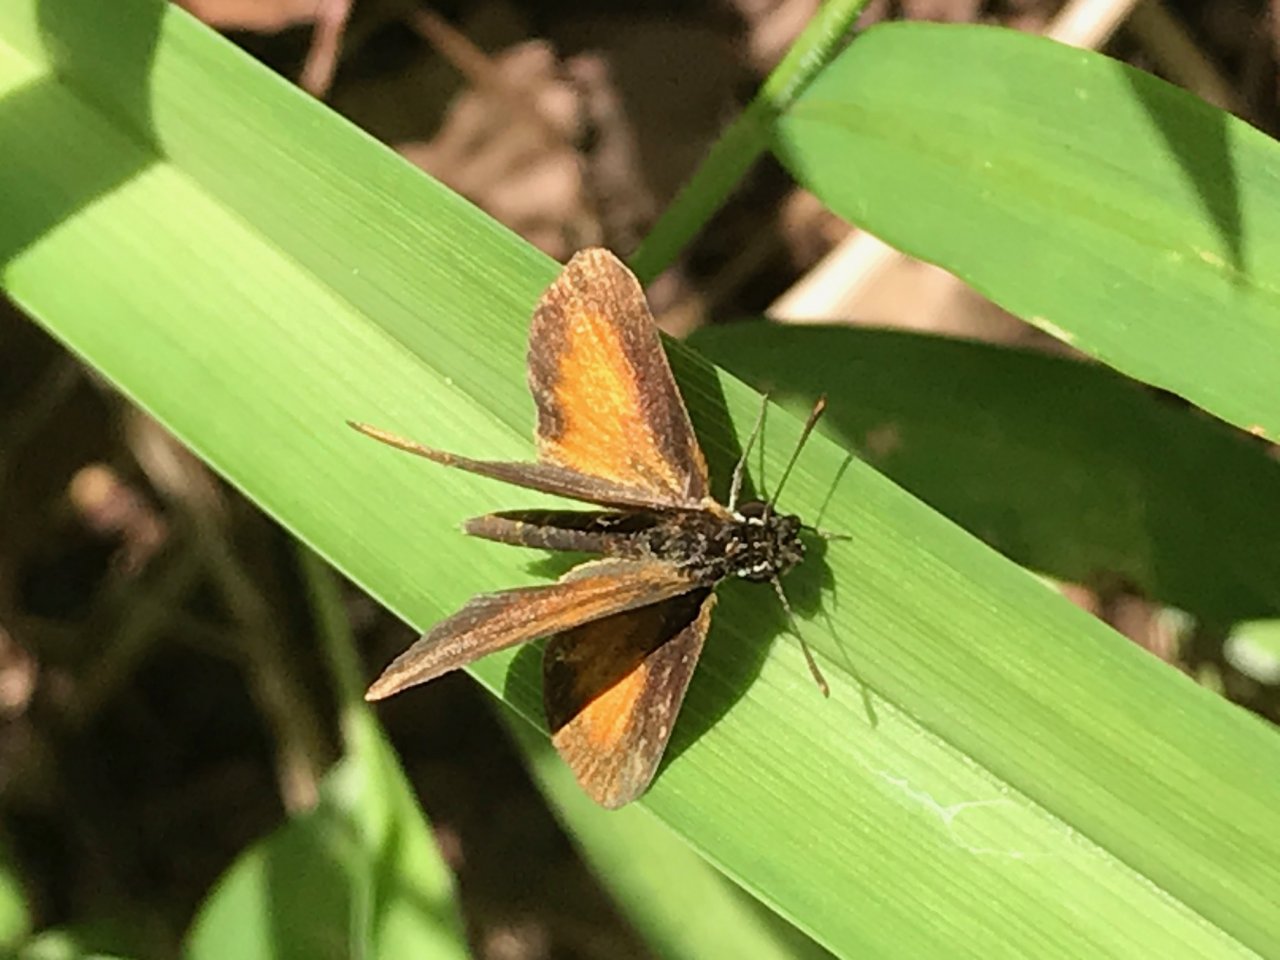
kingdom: Animalia
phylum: Arthropoda
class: Insecta
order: Lepidoptera
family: Hesperiidae
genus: Ancyloxypha
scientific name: Ancyloxypha numitor
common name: Least Skipper
